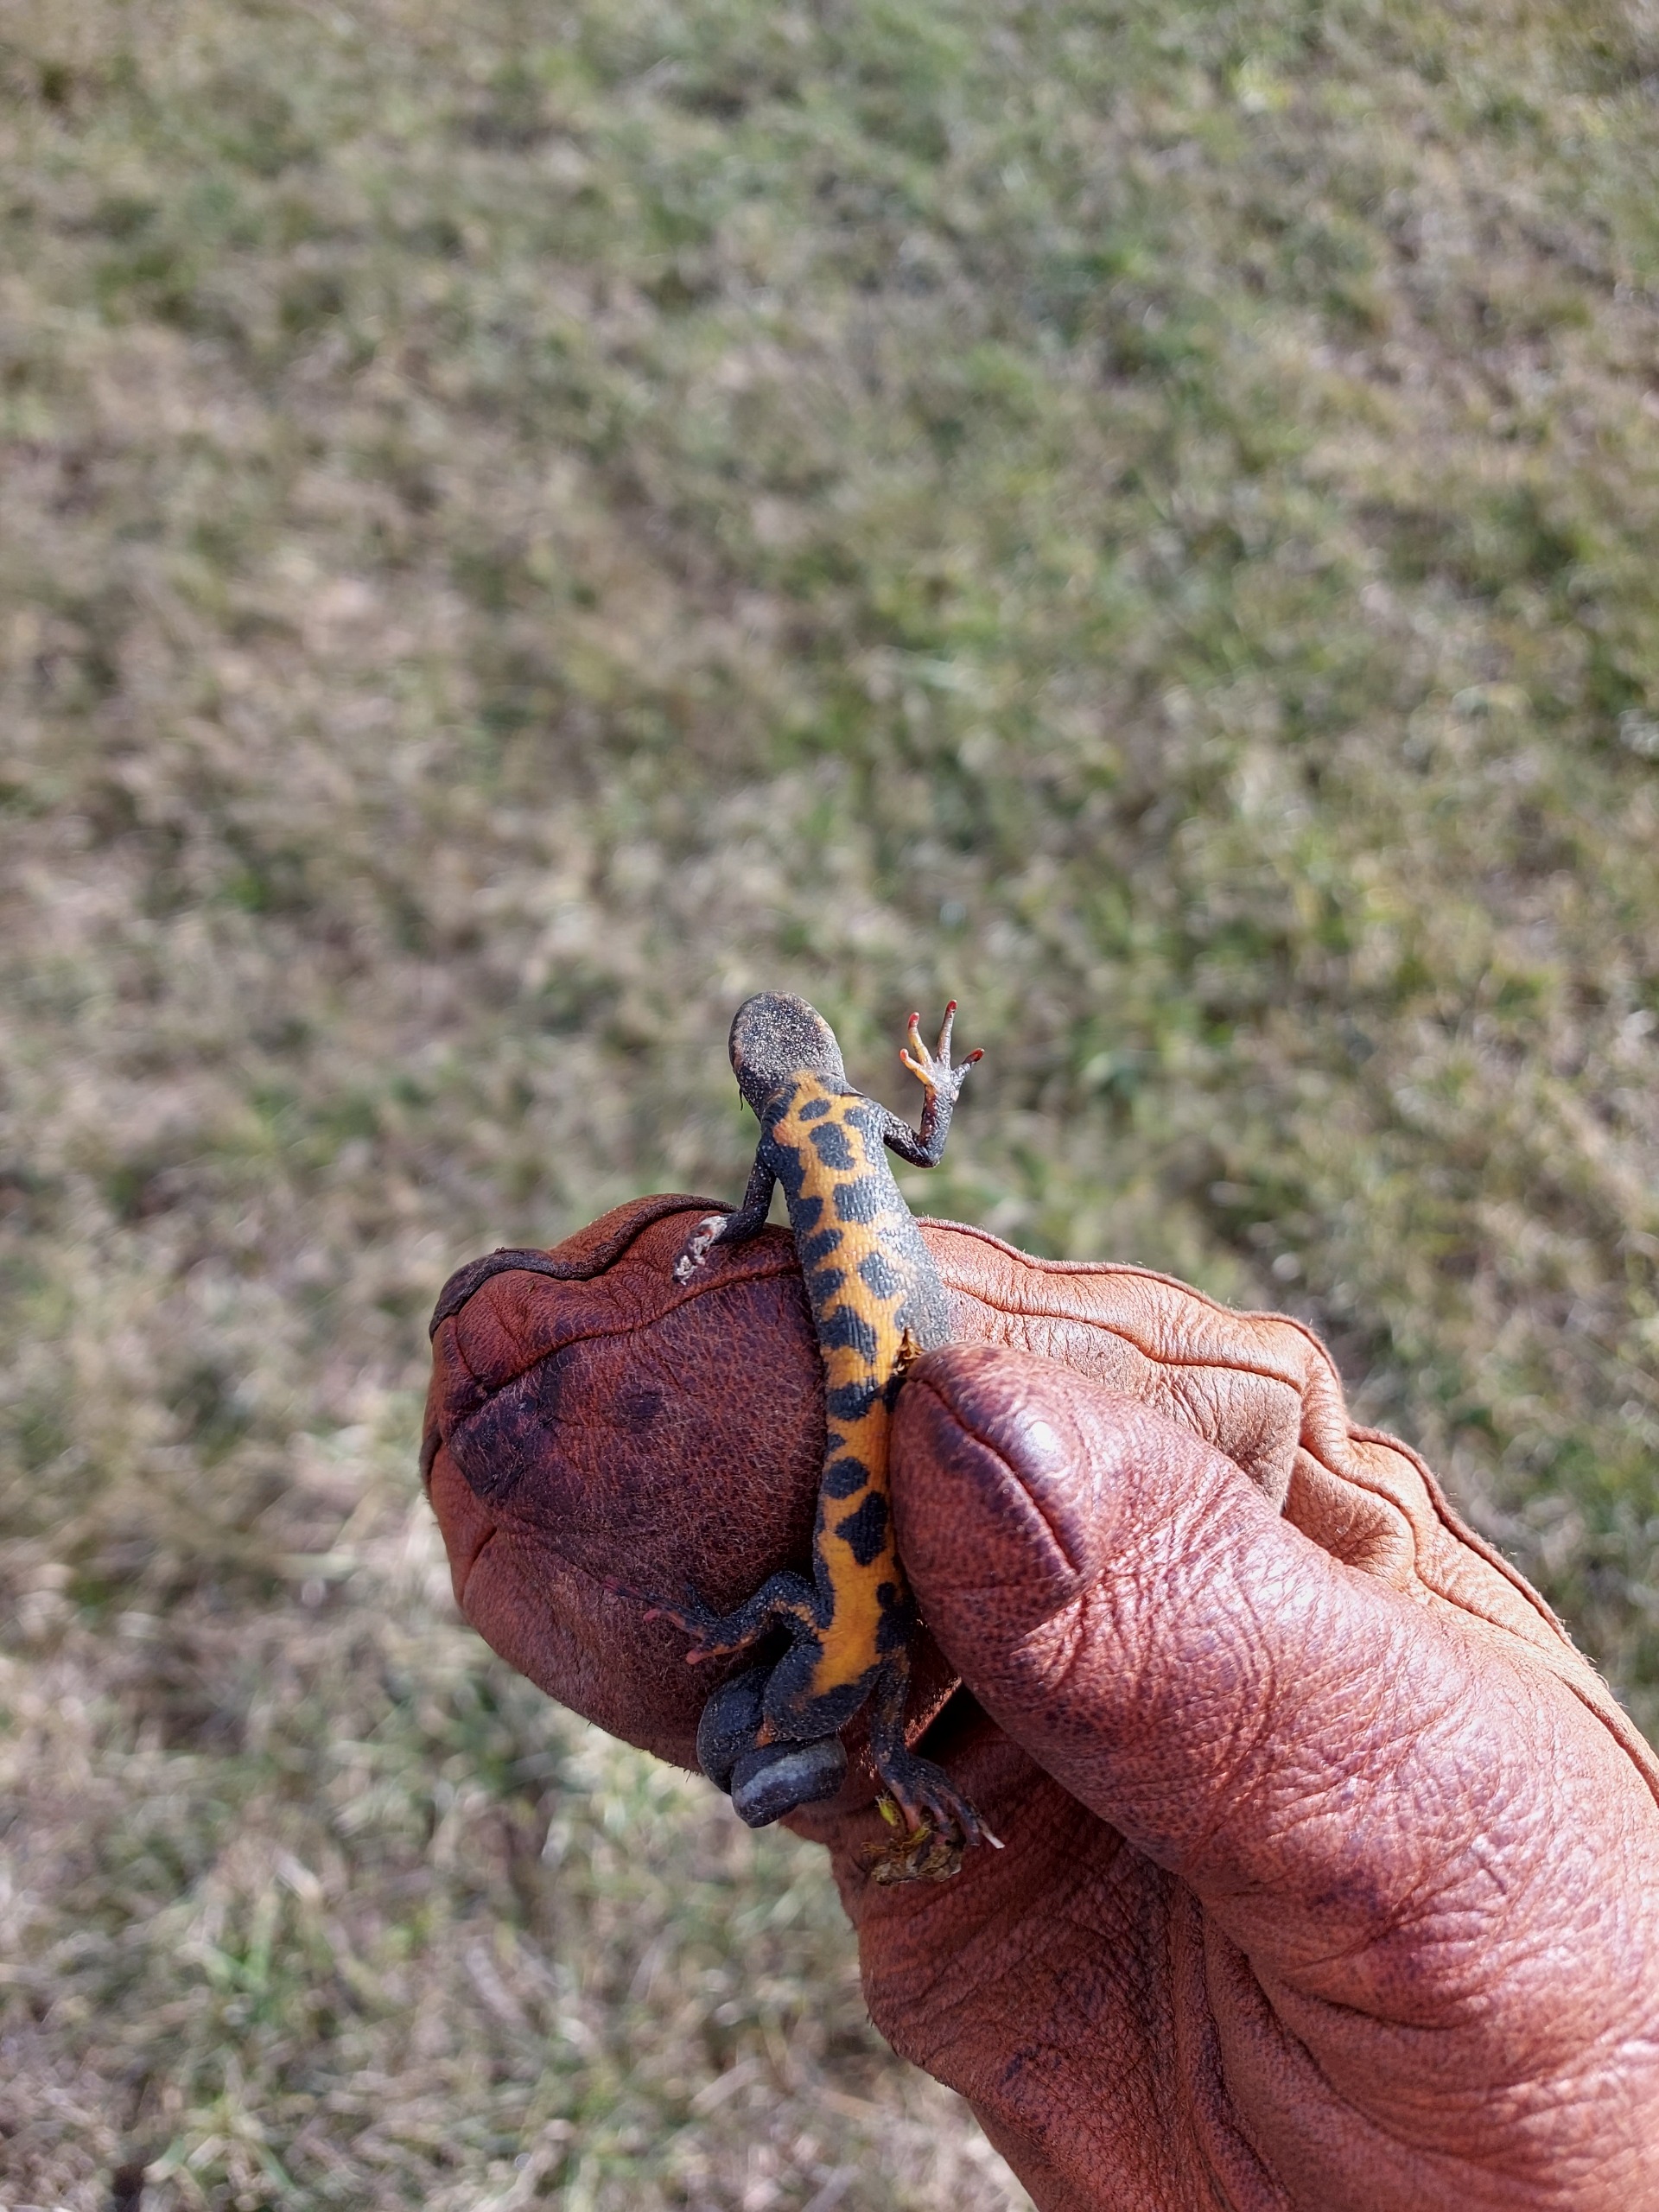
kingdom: Animalia
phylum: Chordata
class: Amphibia
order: Caudata
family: Salamandridae
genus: Triturus
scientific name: Triturus cristatus
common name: Stor vandsalamander
